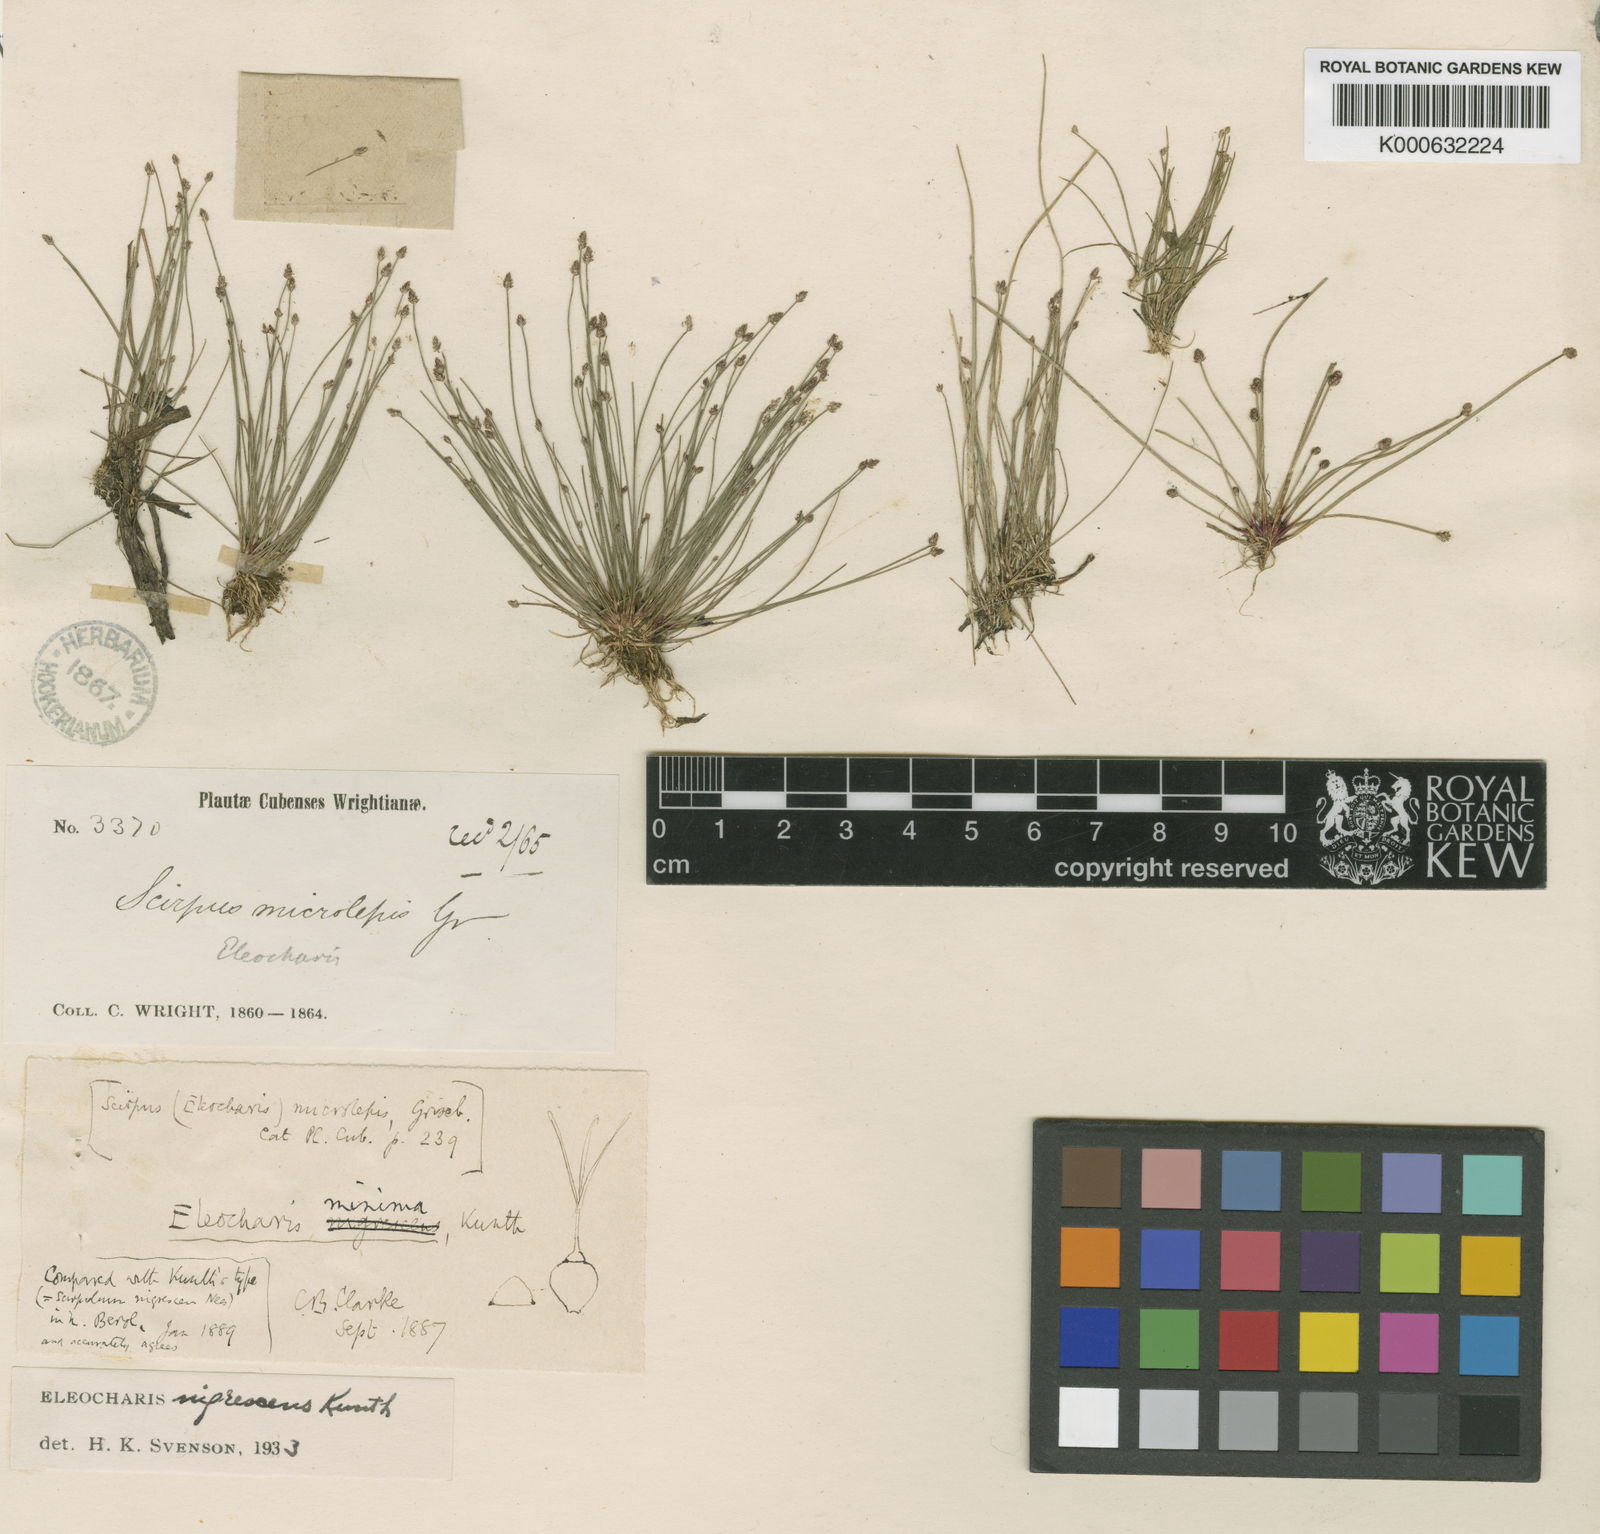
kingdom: Plantae
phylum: Tracheophyta
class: Liliopsida
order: Poales
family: Cyperaceae
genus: Eleocharis
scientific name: Eleocharis microlepis
